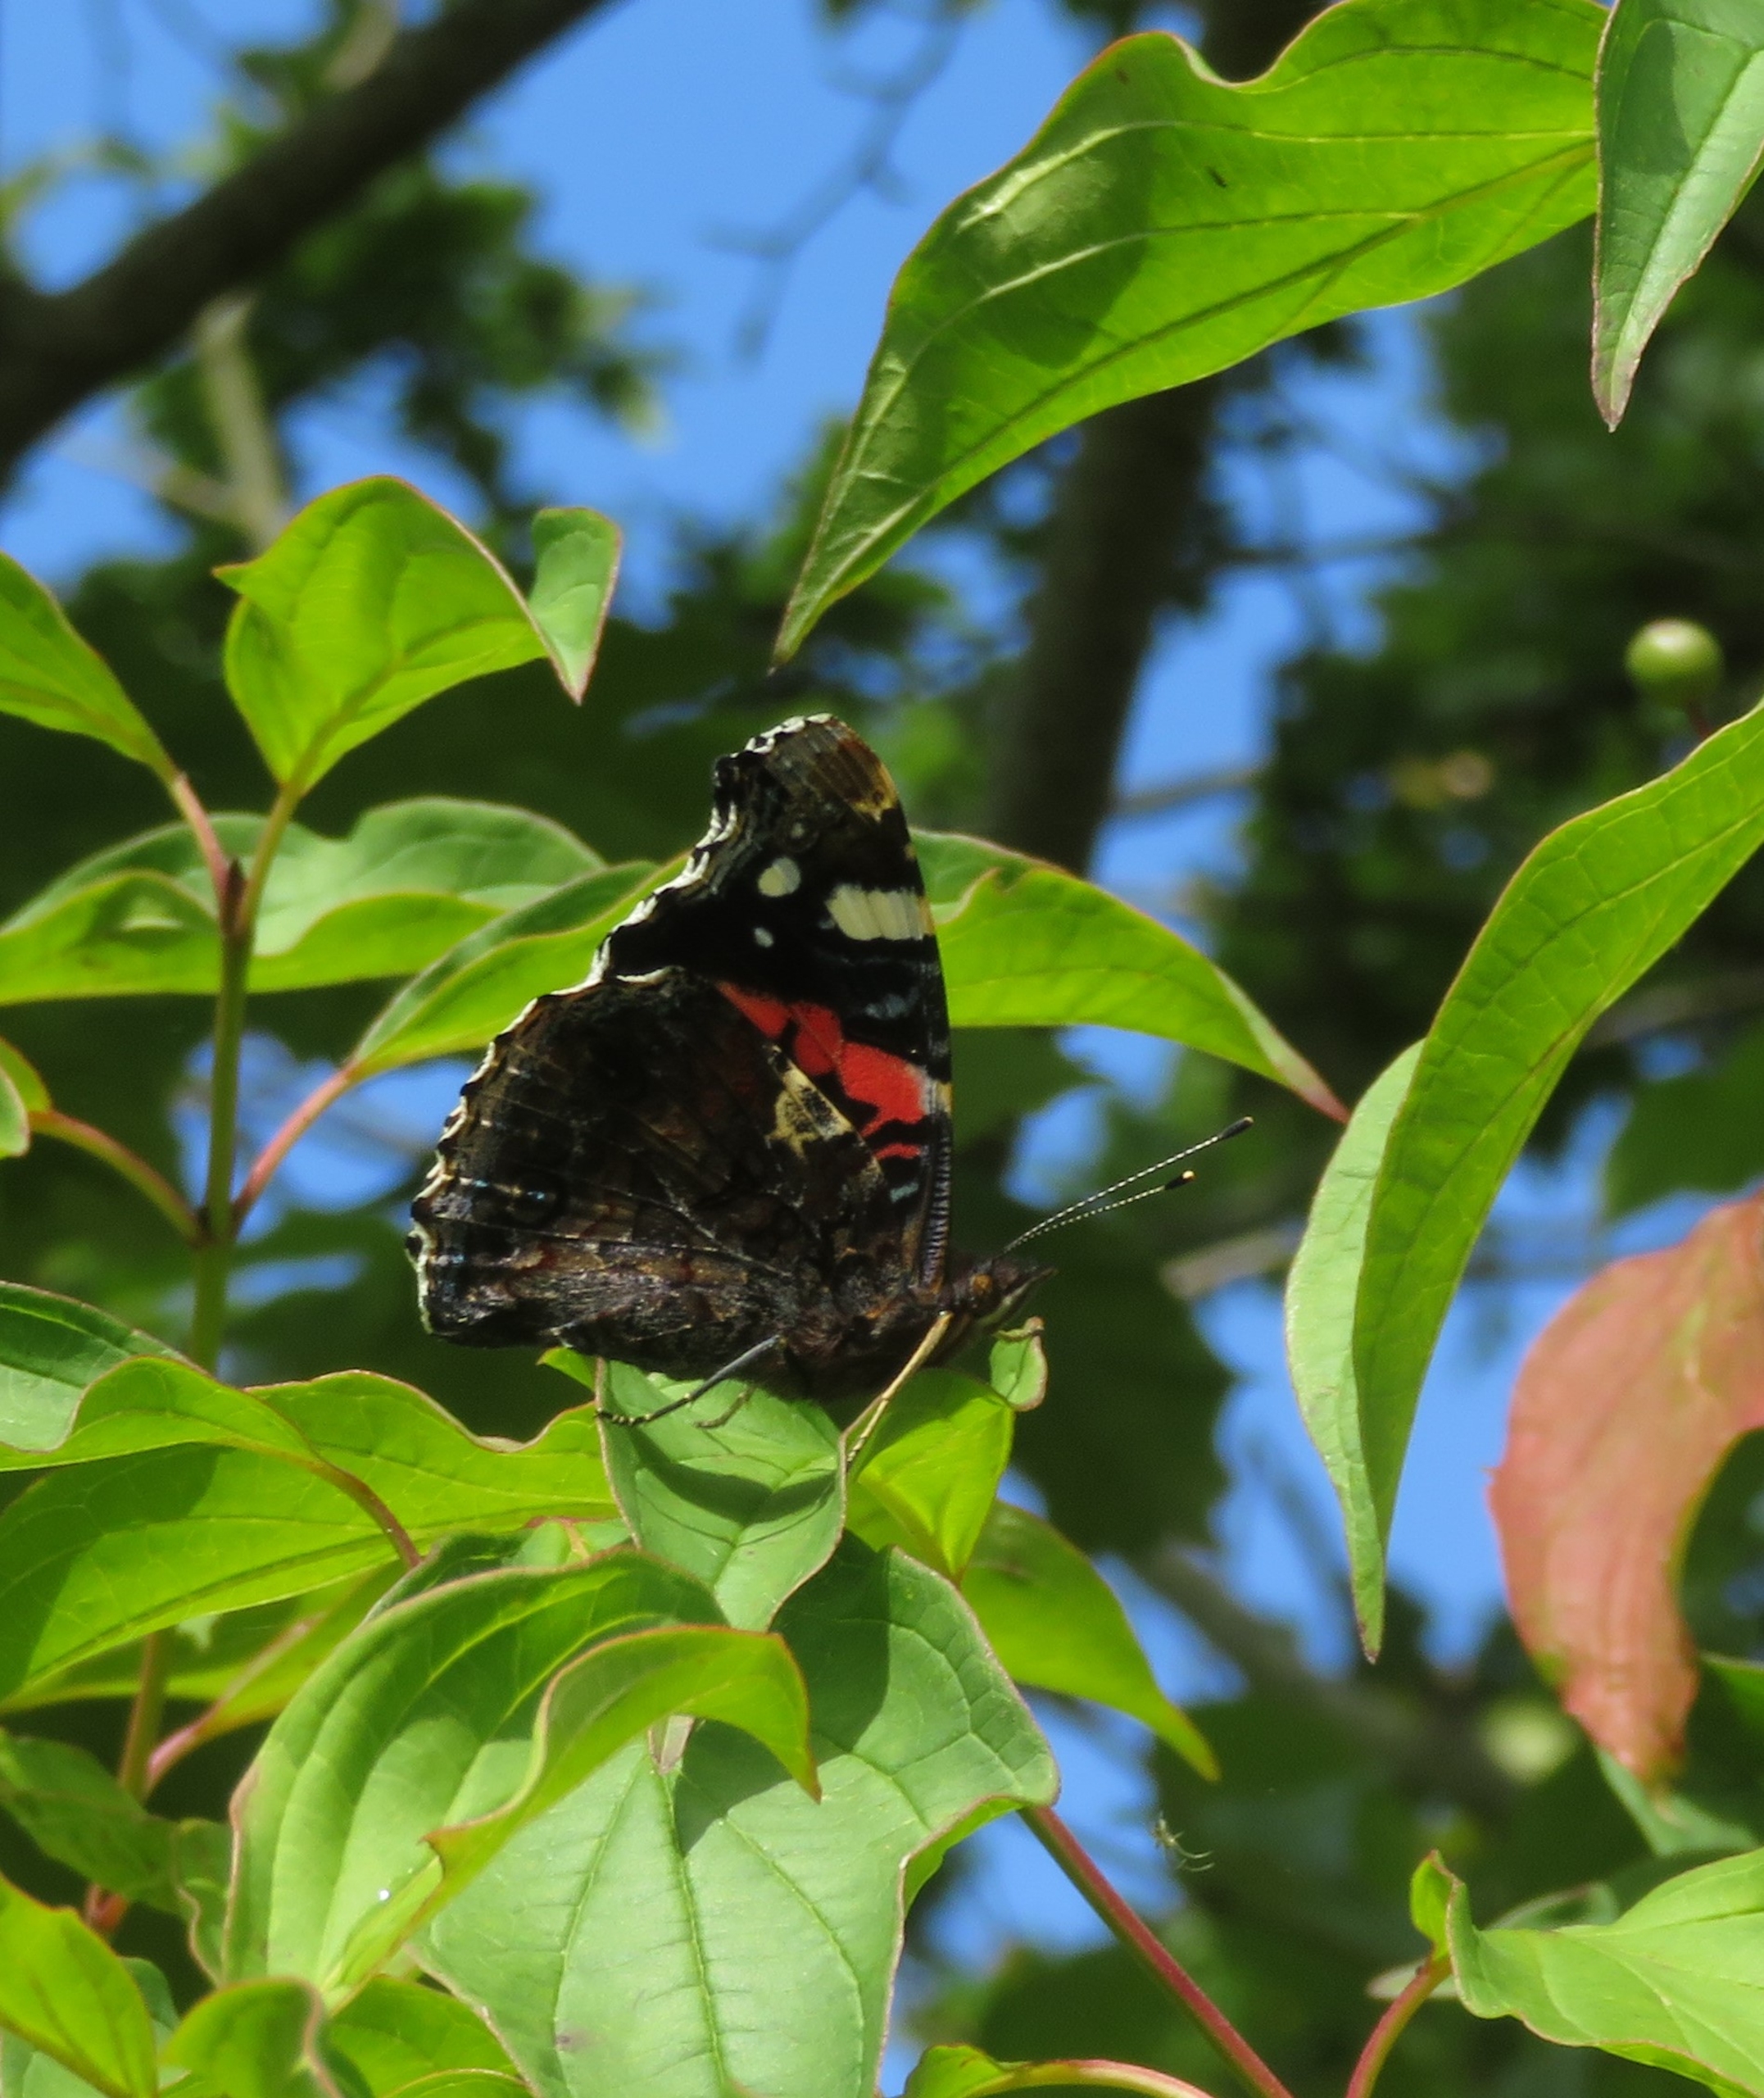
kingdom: Animalia
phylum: Arthropoda
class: Insecta
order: Lepidoptera
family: Nymphalidae
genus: Vanessa
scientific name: Vanessa atalanta
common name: Admiral
